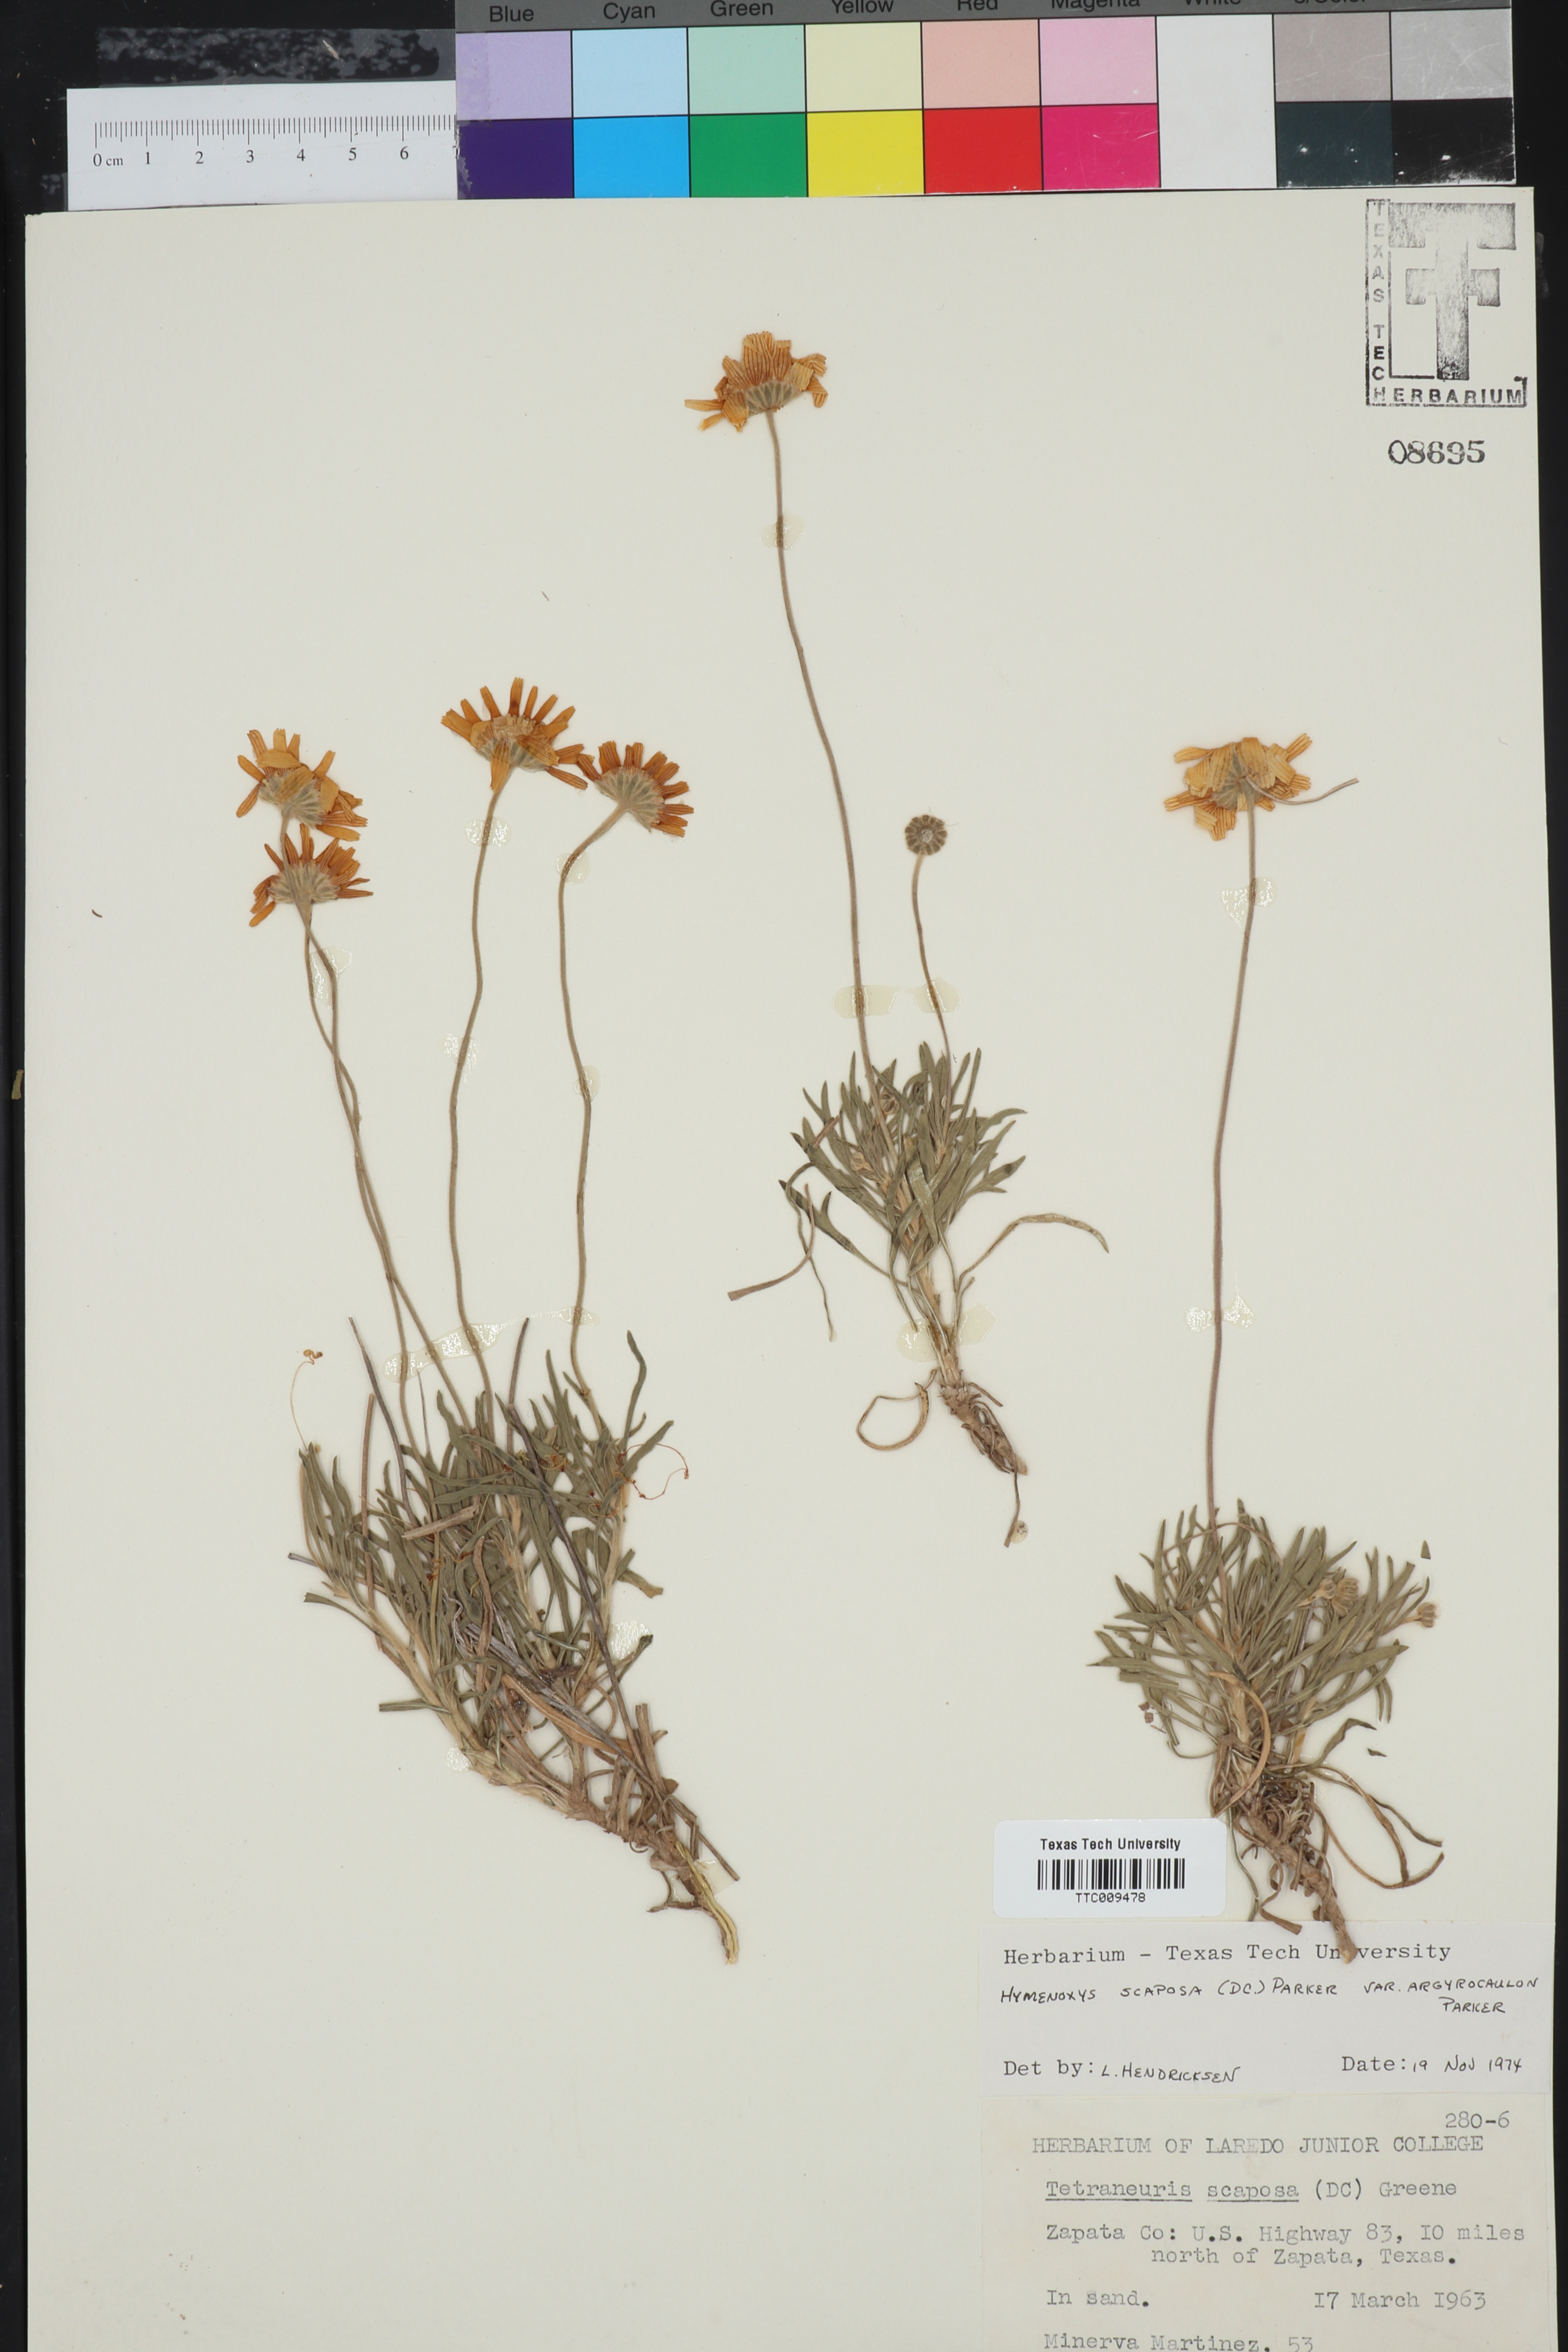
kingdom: Plantae
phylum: Tracheophyta
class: Magnoliopsida
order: Asterales
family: Asteraceae
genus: Tetraneuris
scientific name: Tetraneuris scaposa
